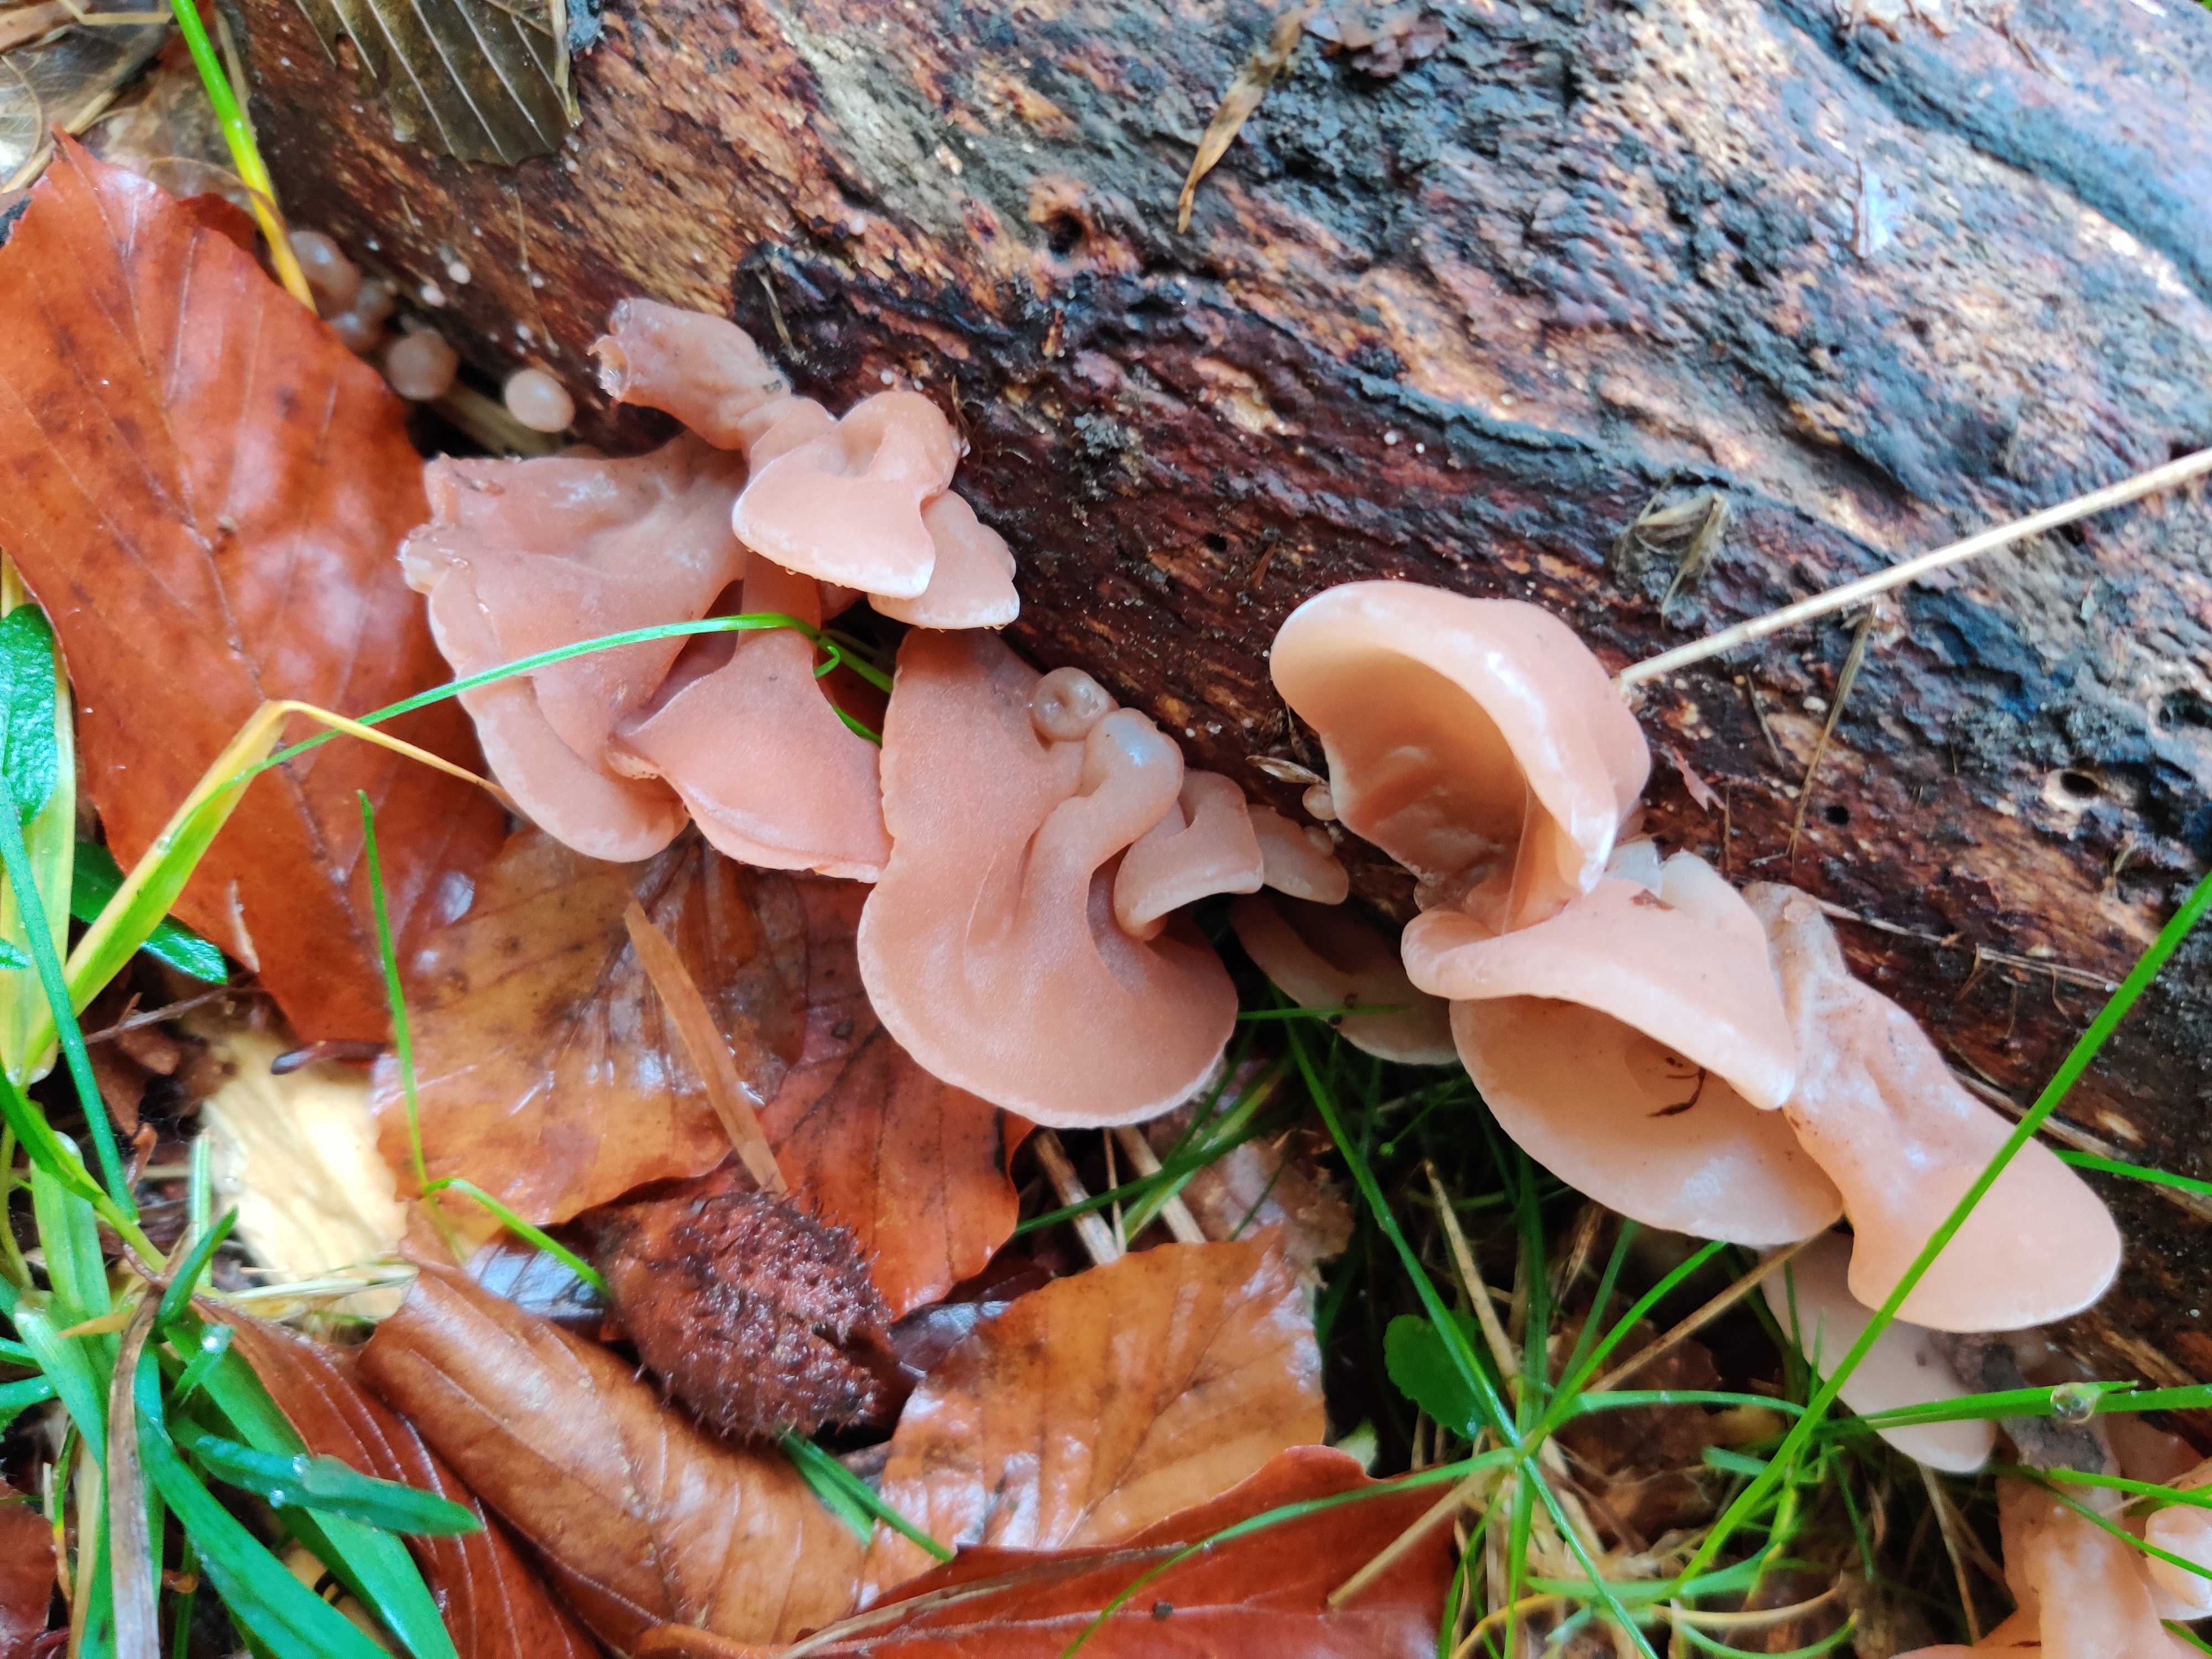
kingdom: Fungi
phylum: Basidiomycota
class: Agaricomycetes
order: Auriculariales
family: Auriculariaceae
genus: Auricularia
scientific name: Auricularia auricula-judae
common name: almindelig judasøre
